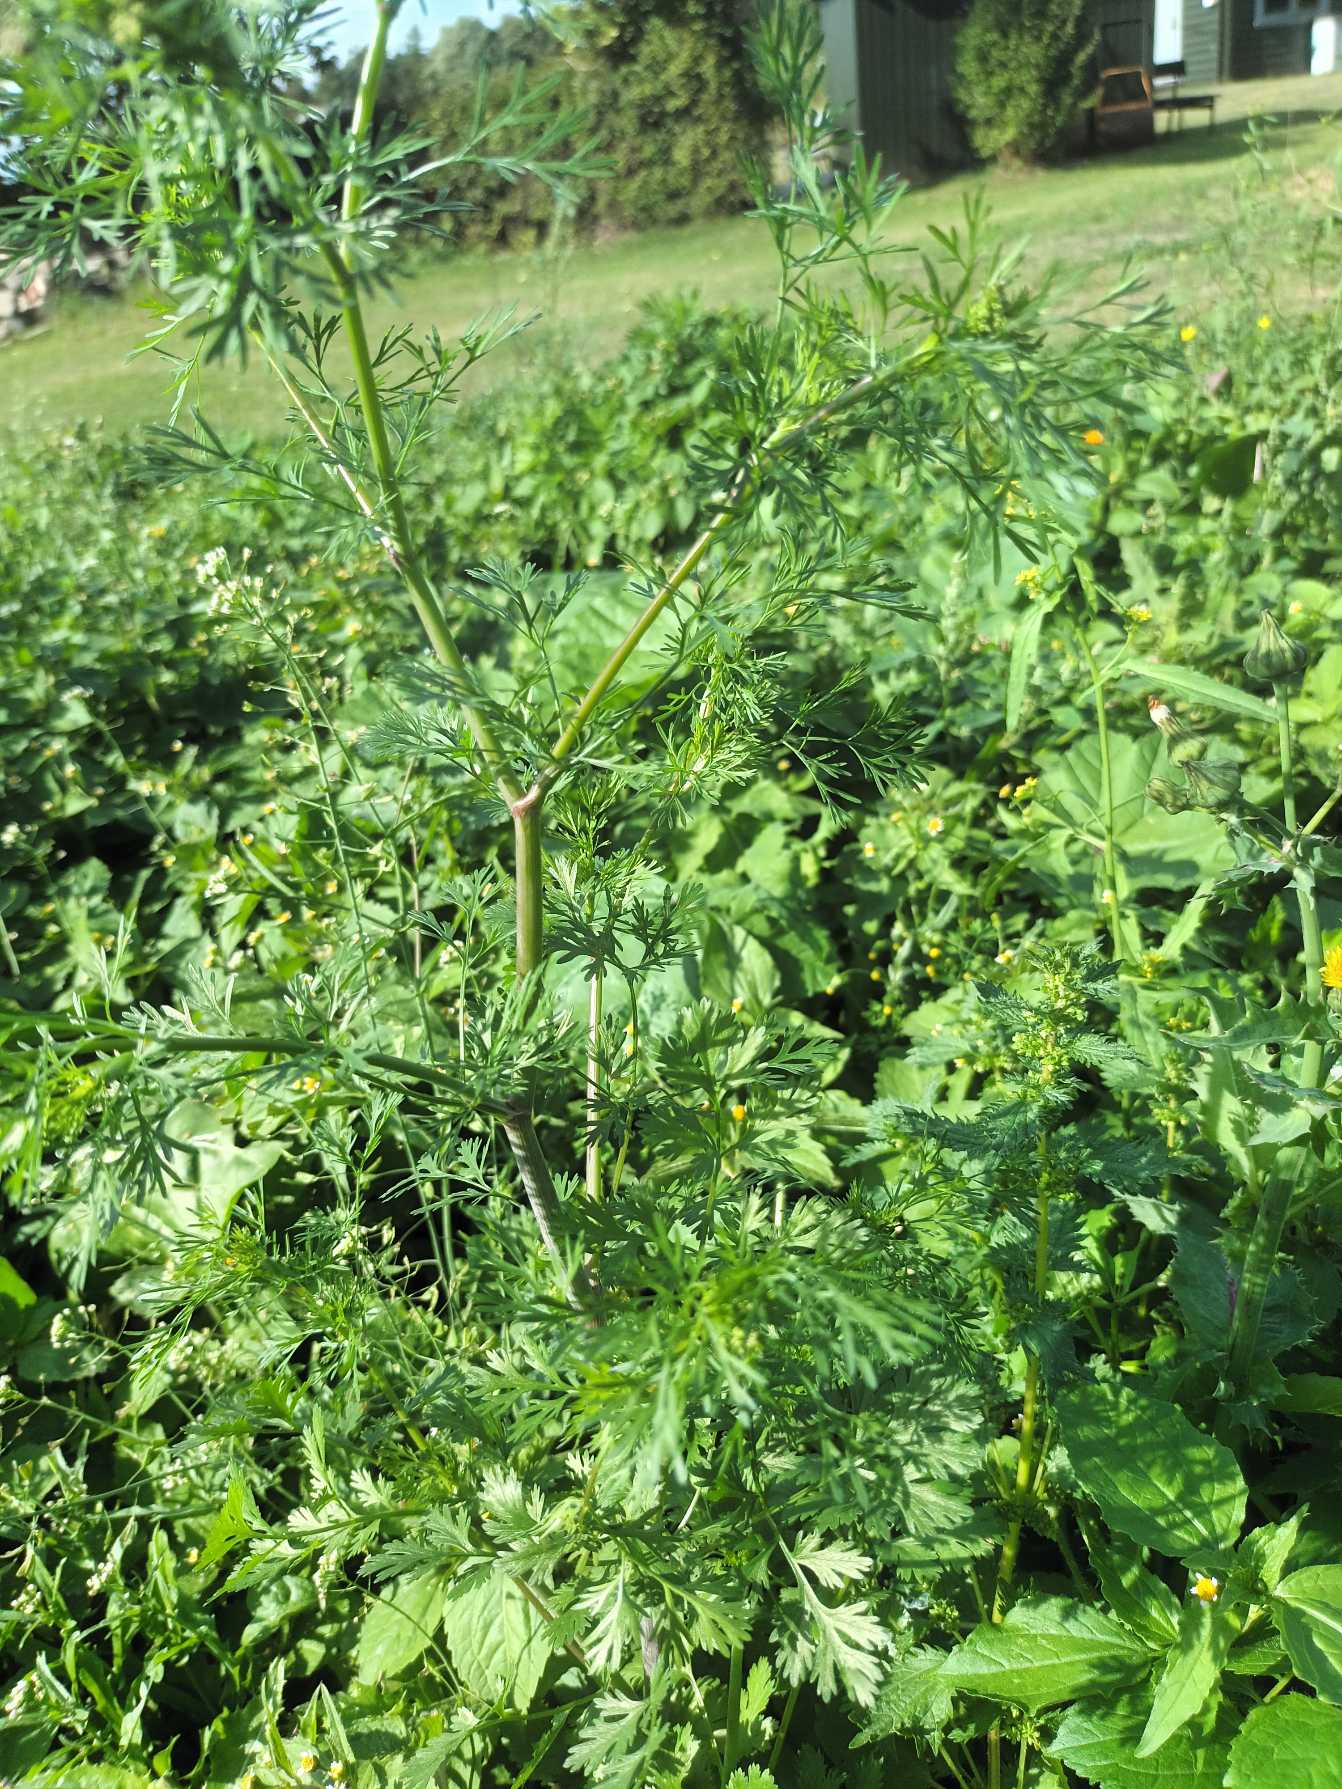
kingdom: Plantae
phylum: Tracheophyta
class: Magnoliopsida
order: Apiales
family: Apiaceae
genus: Coriandrum
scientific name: Coriandrum sativum
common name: Koriander
